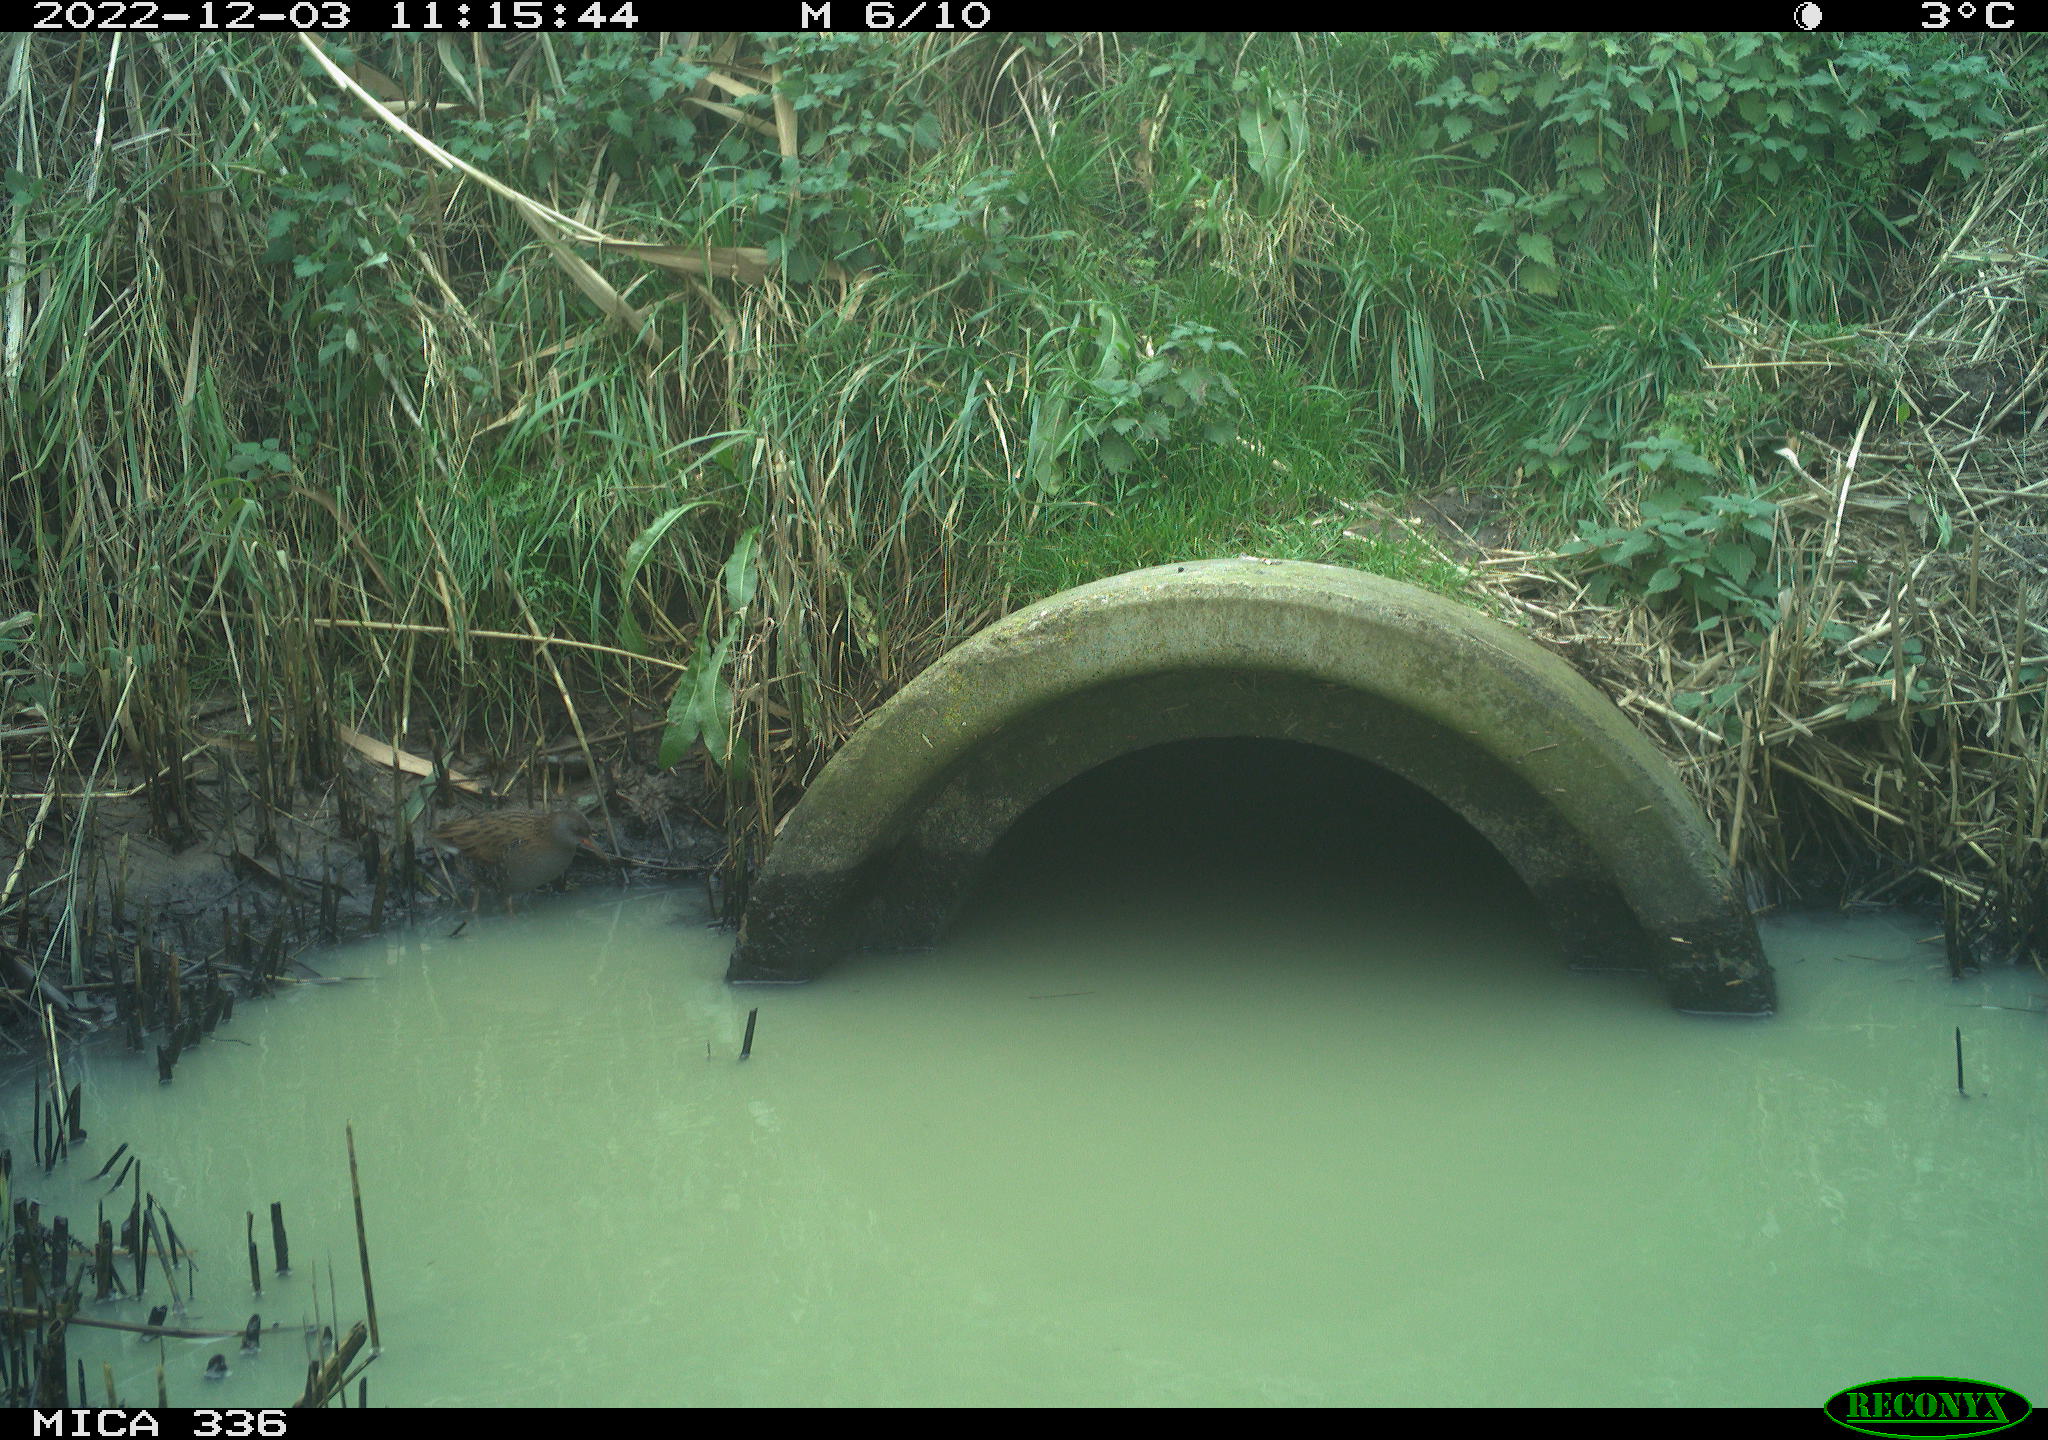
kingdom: Animalia
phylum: Chordata
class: Aves
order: Gruiformes
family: Rallidae
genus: Rallus
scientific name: Rallus aquaticus
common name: Water rail
